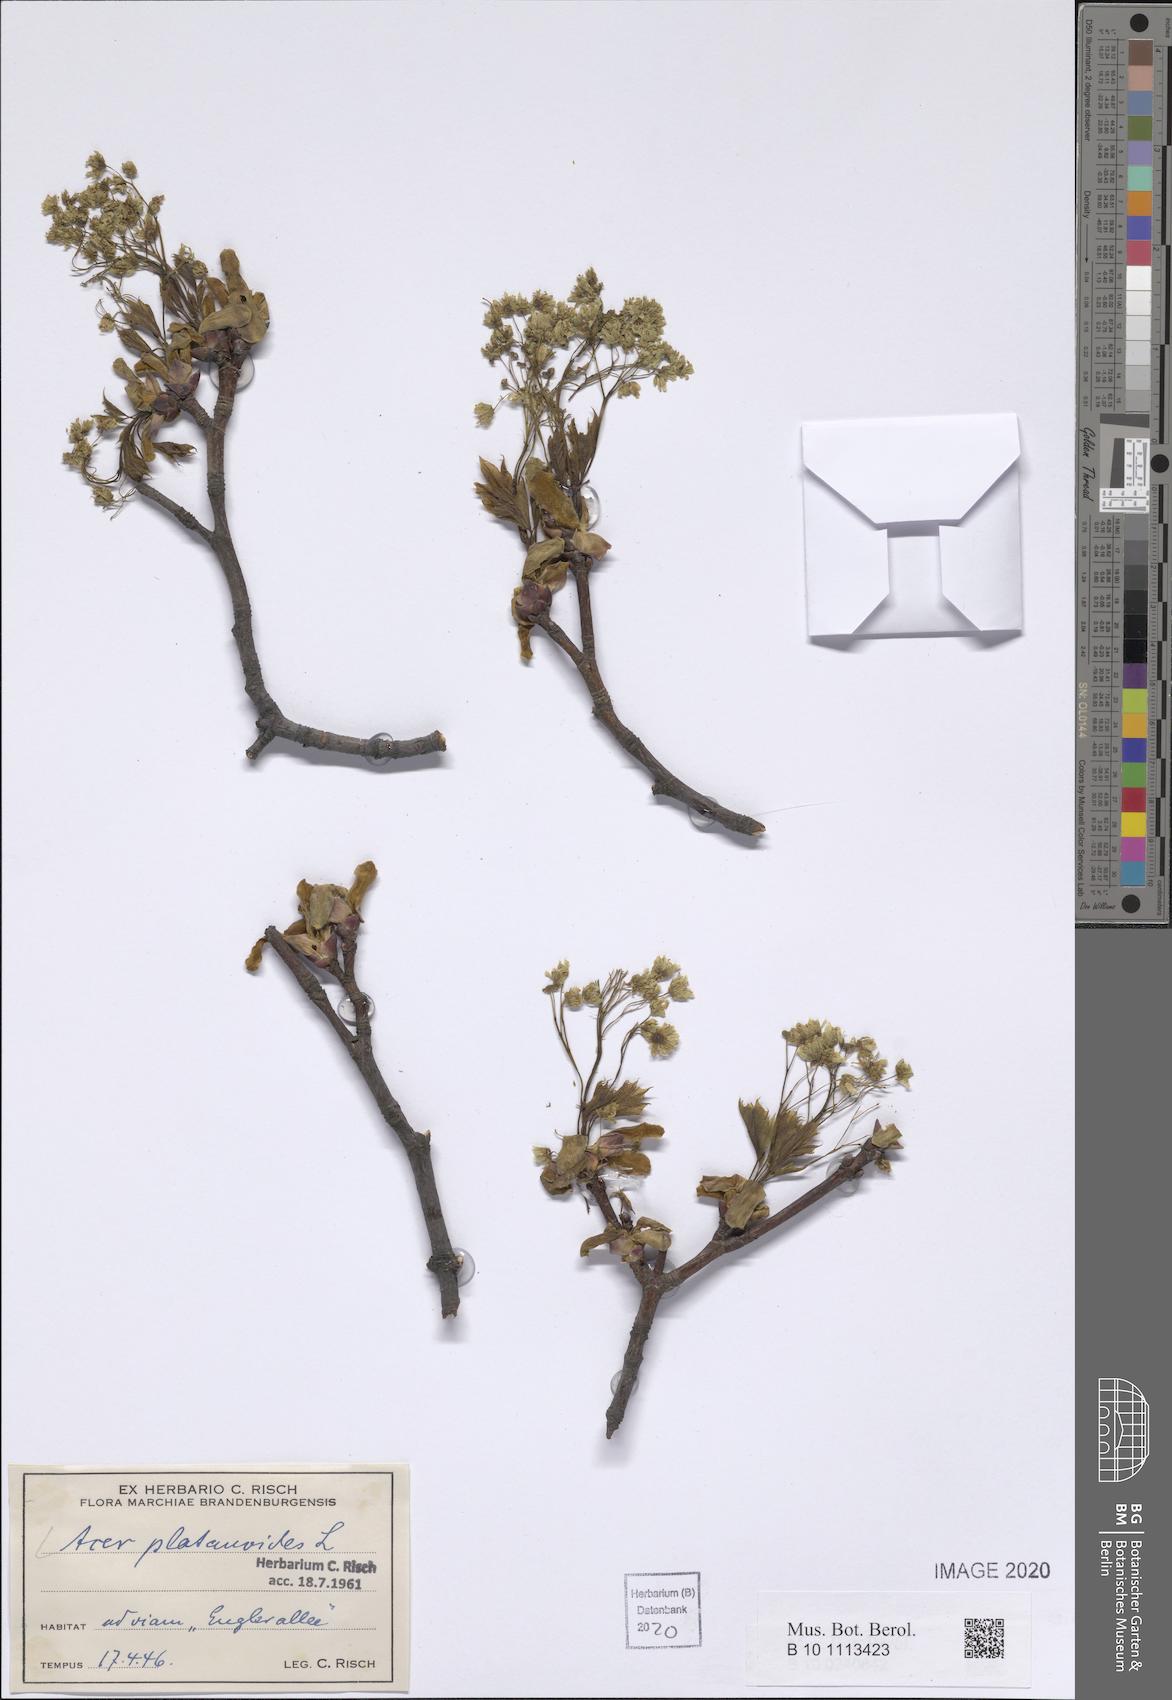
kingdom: Plantae
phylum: Tracheophyta
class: Magnoliopsida
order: Sapindales
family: Sapindaceae
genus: Acer
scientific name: Acer platanoides
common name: Norway maple
